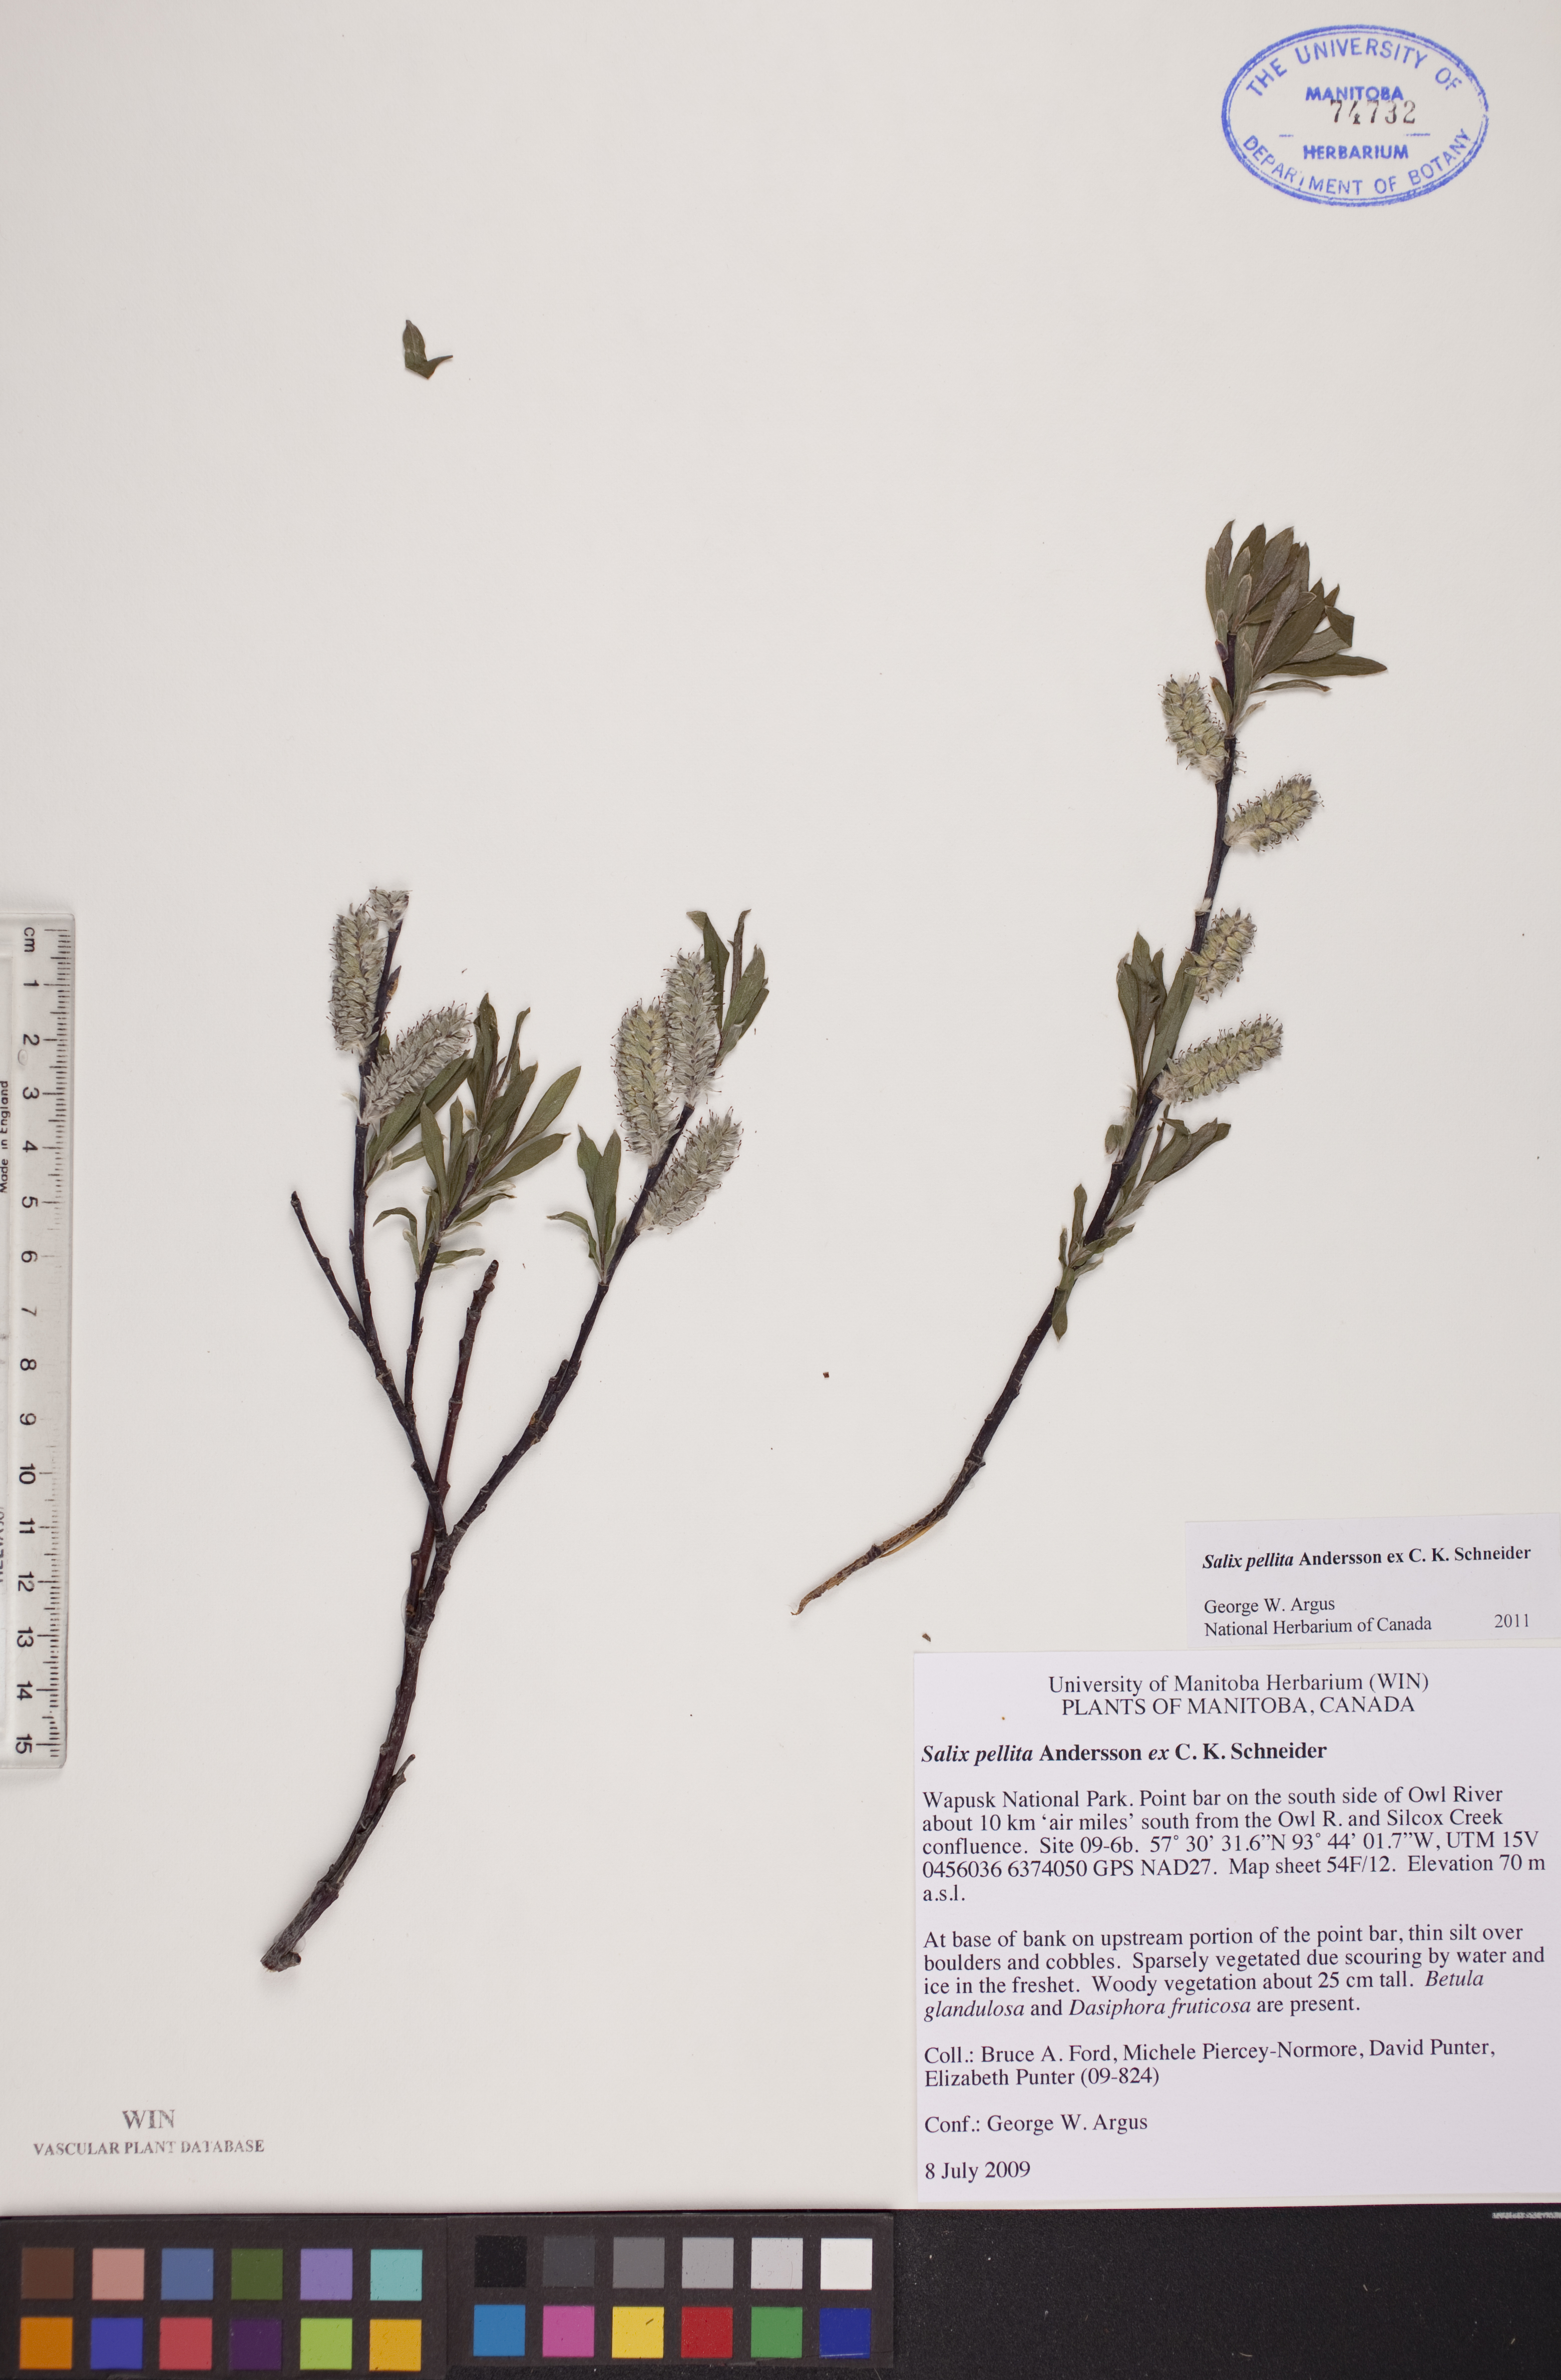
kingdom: Plantae
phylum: Tracheophyta
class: Magnoliopsida
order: Malpighiales
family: Salicaceae
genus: Salix
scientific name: Salix pellita
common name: Satiny willow
